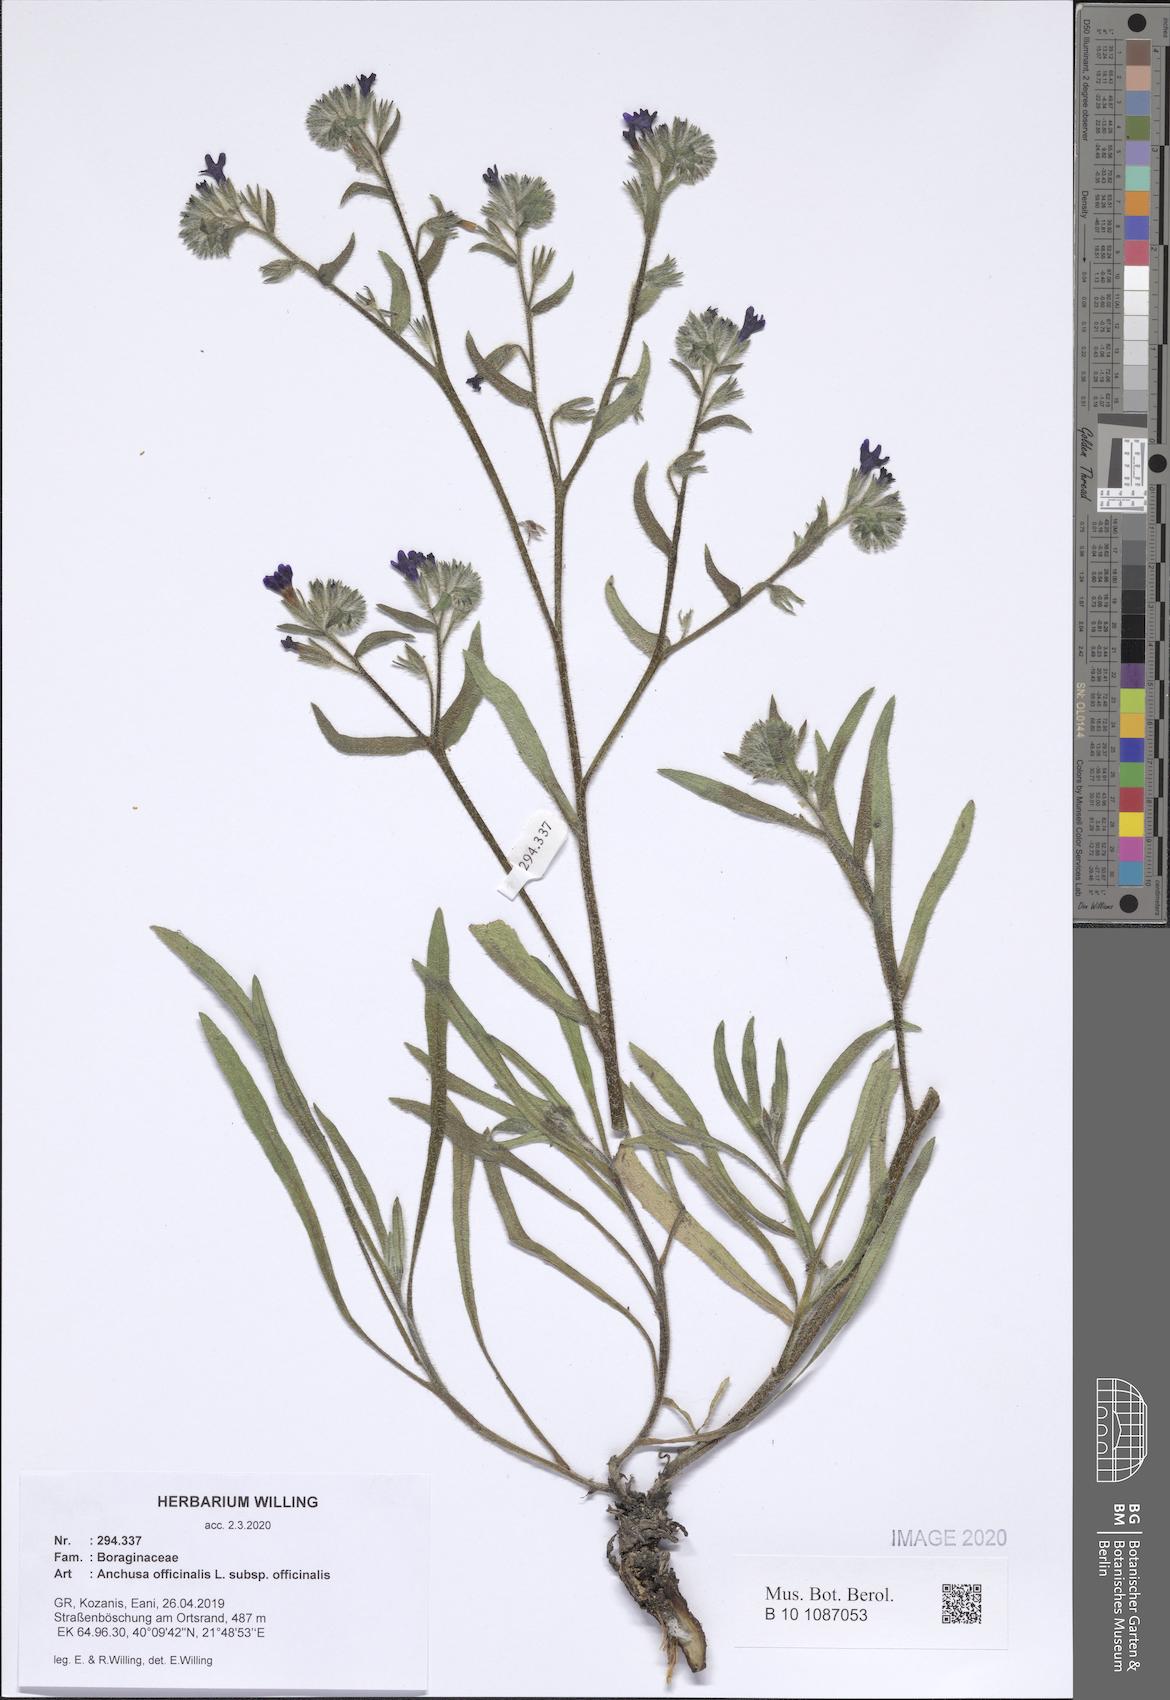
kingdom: Plantae
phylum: Tracheophyta
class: Magnoliopsida
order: Boraginales
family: Boraginaceae
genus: Anchusa
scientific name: Anchusa officinalis
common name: Alkanet
